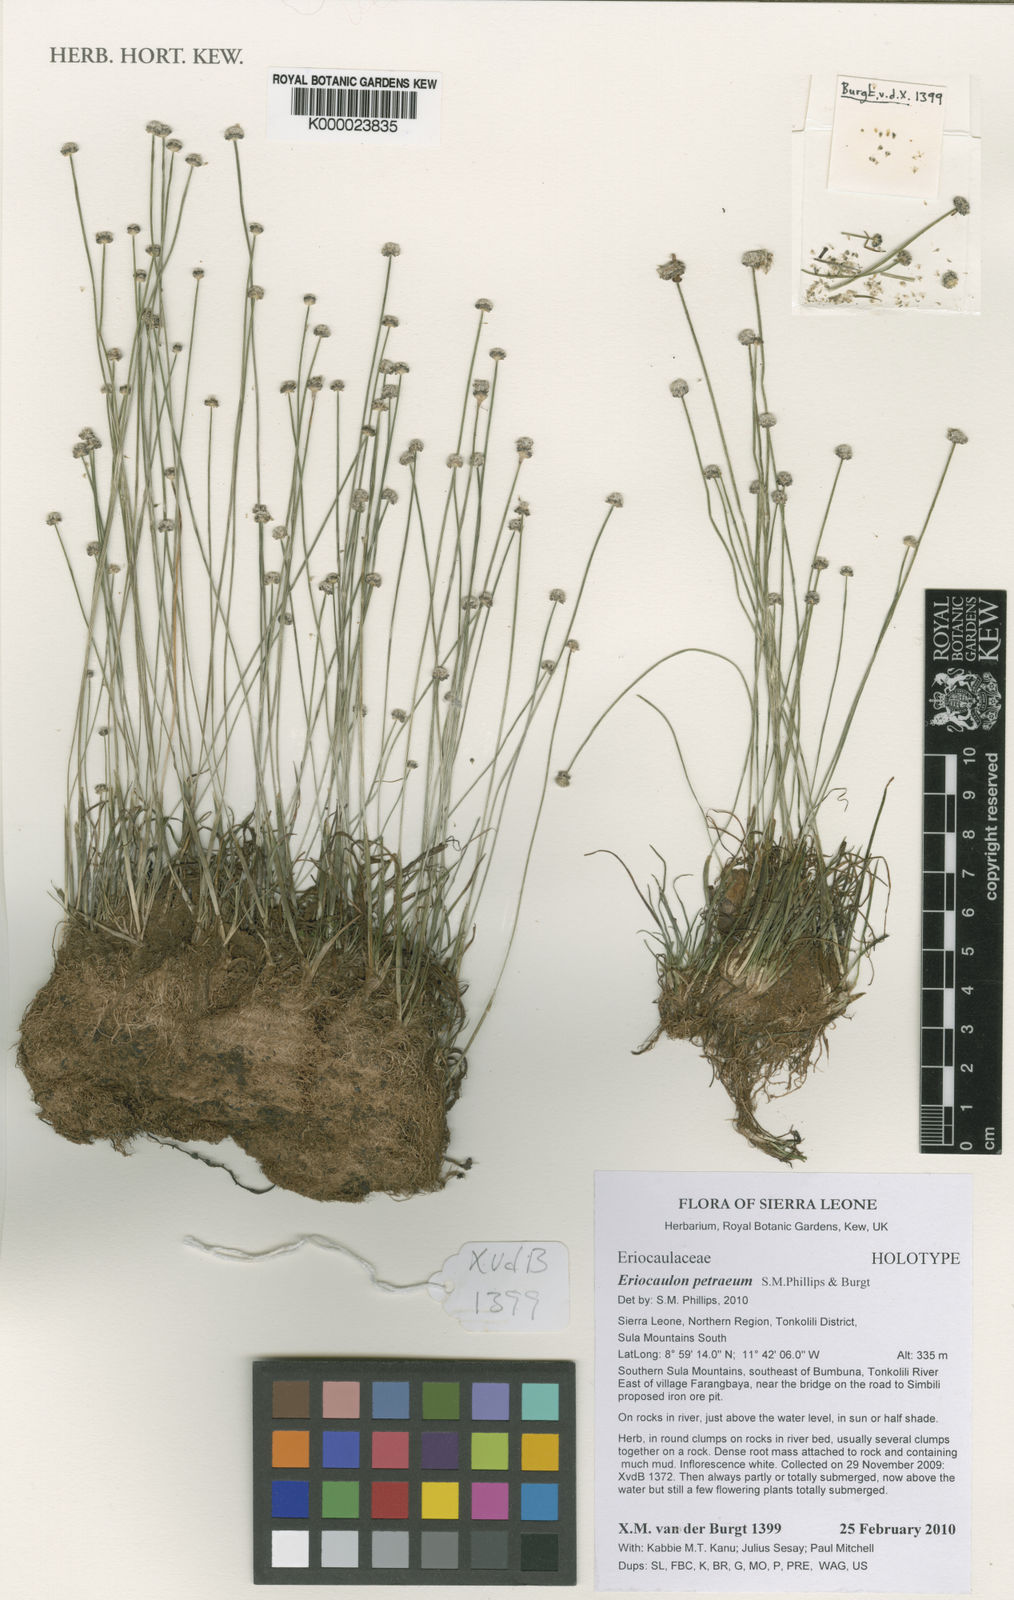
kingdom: Plantae
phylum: Tracheophyta
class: Liliopsida
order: Poales
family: Eriocaulaceae
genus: Eriocaulon
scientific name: Eriocaulon petraeum
